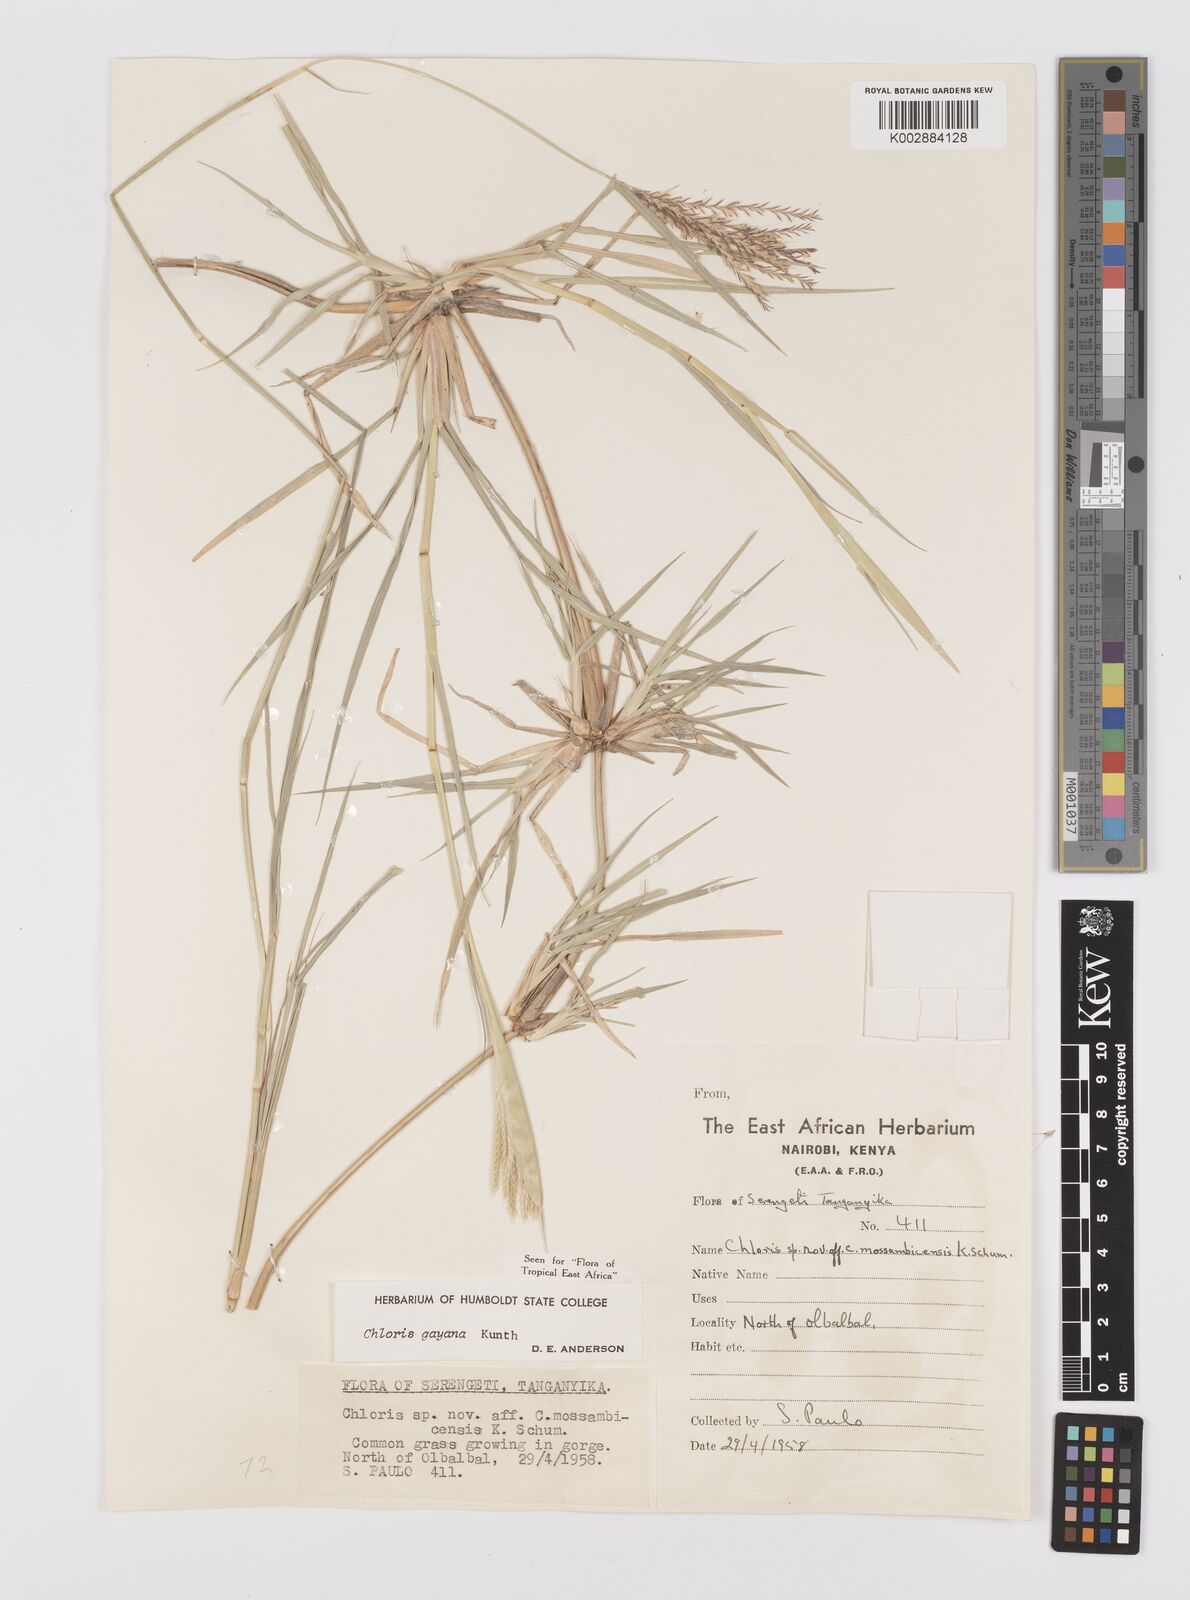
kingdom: Plantae
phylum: Tracheophyta
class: Liliopsida
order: Poales
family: Poaceae
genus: Chloris
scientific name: Chloris gayana
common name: Rhodes grass
